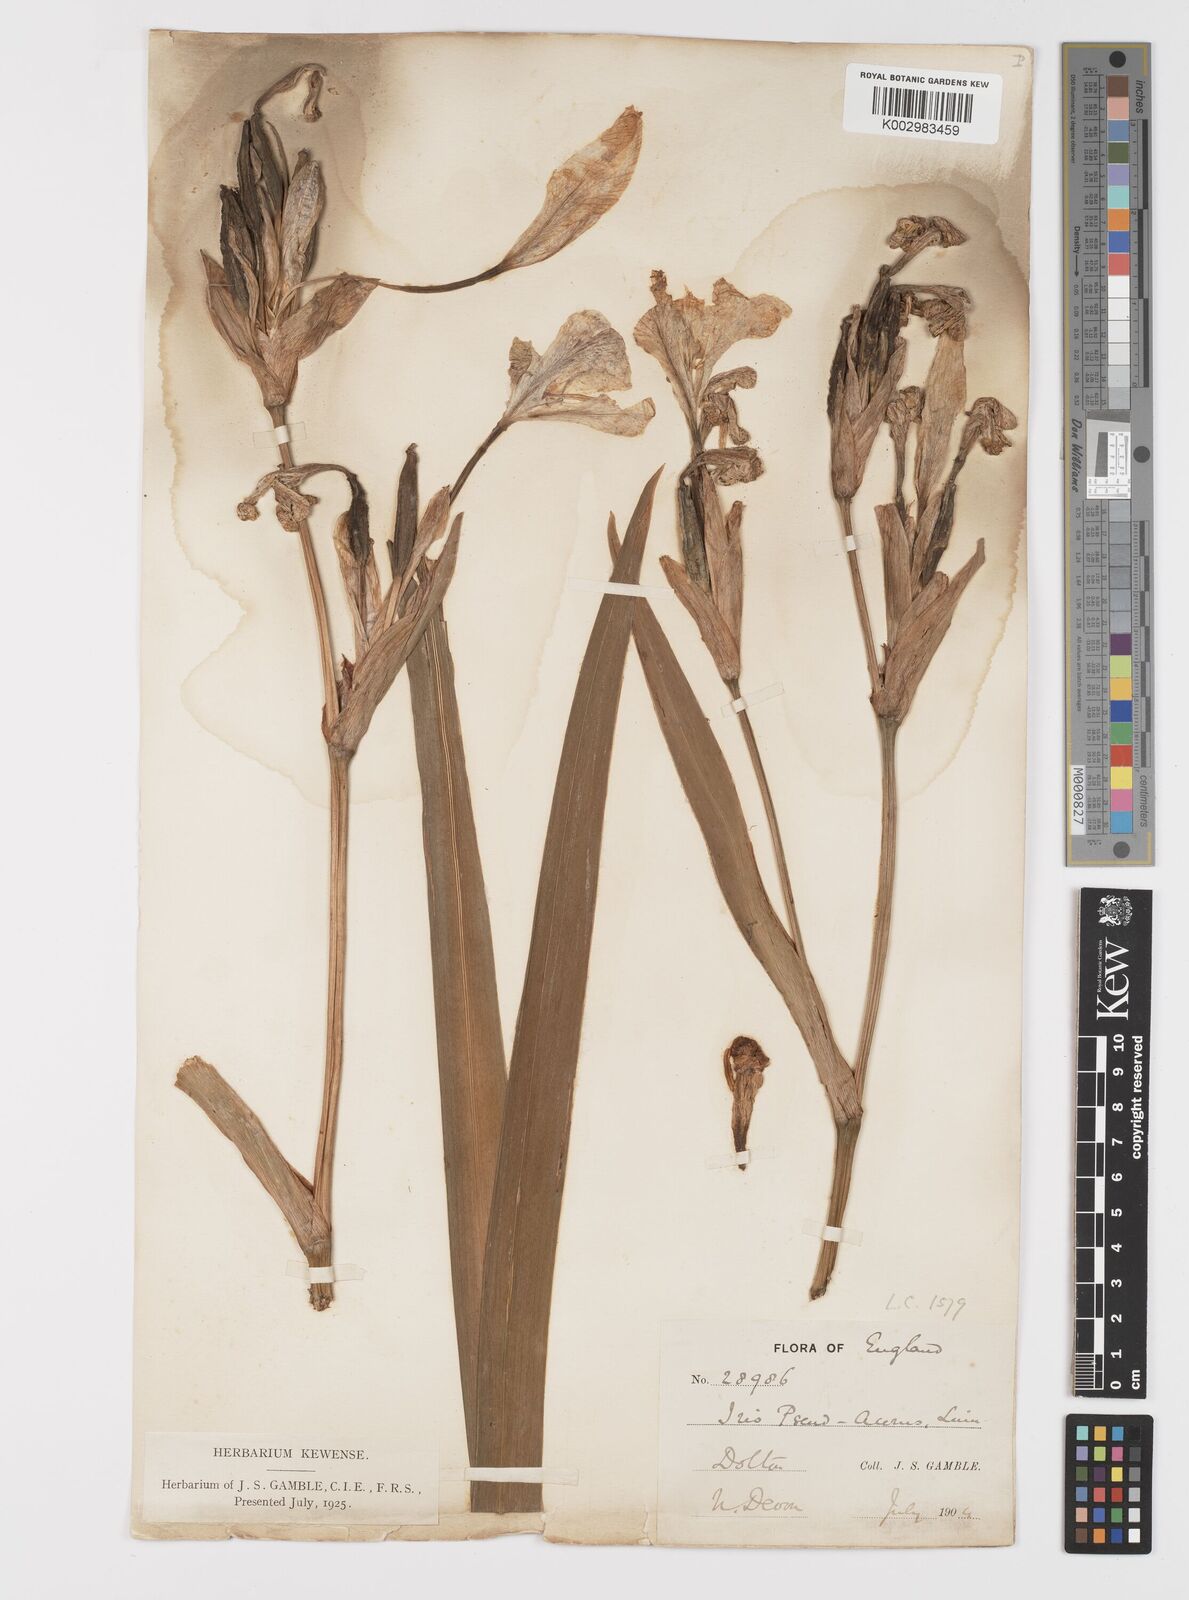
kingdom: Plantae
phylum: Tracheophyta
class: Liliopsida
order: Asparagales
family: Iridaceae
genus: Iris
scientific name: Iris pseudacorus
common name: Yellow flag
